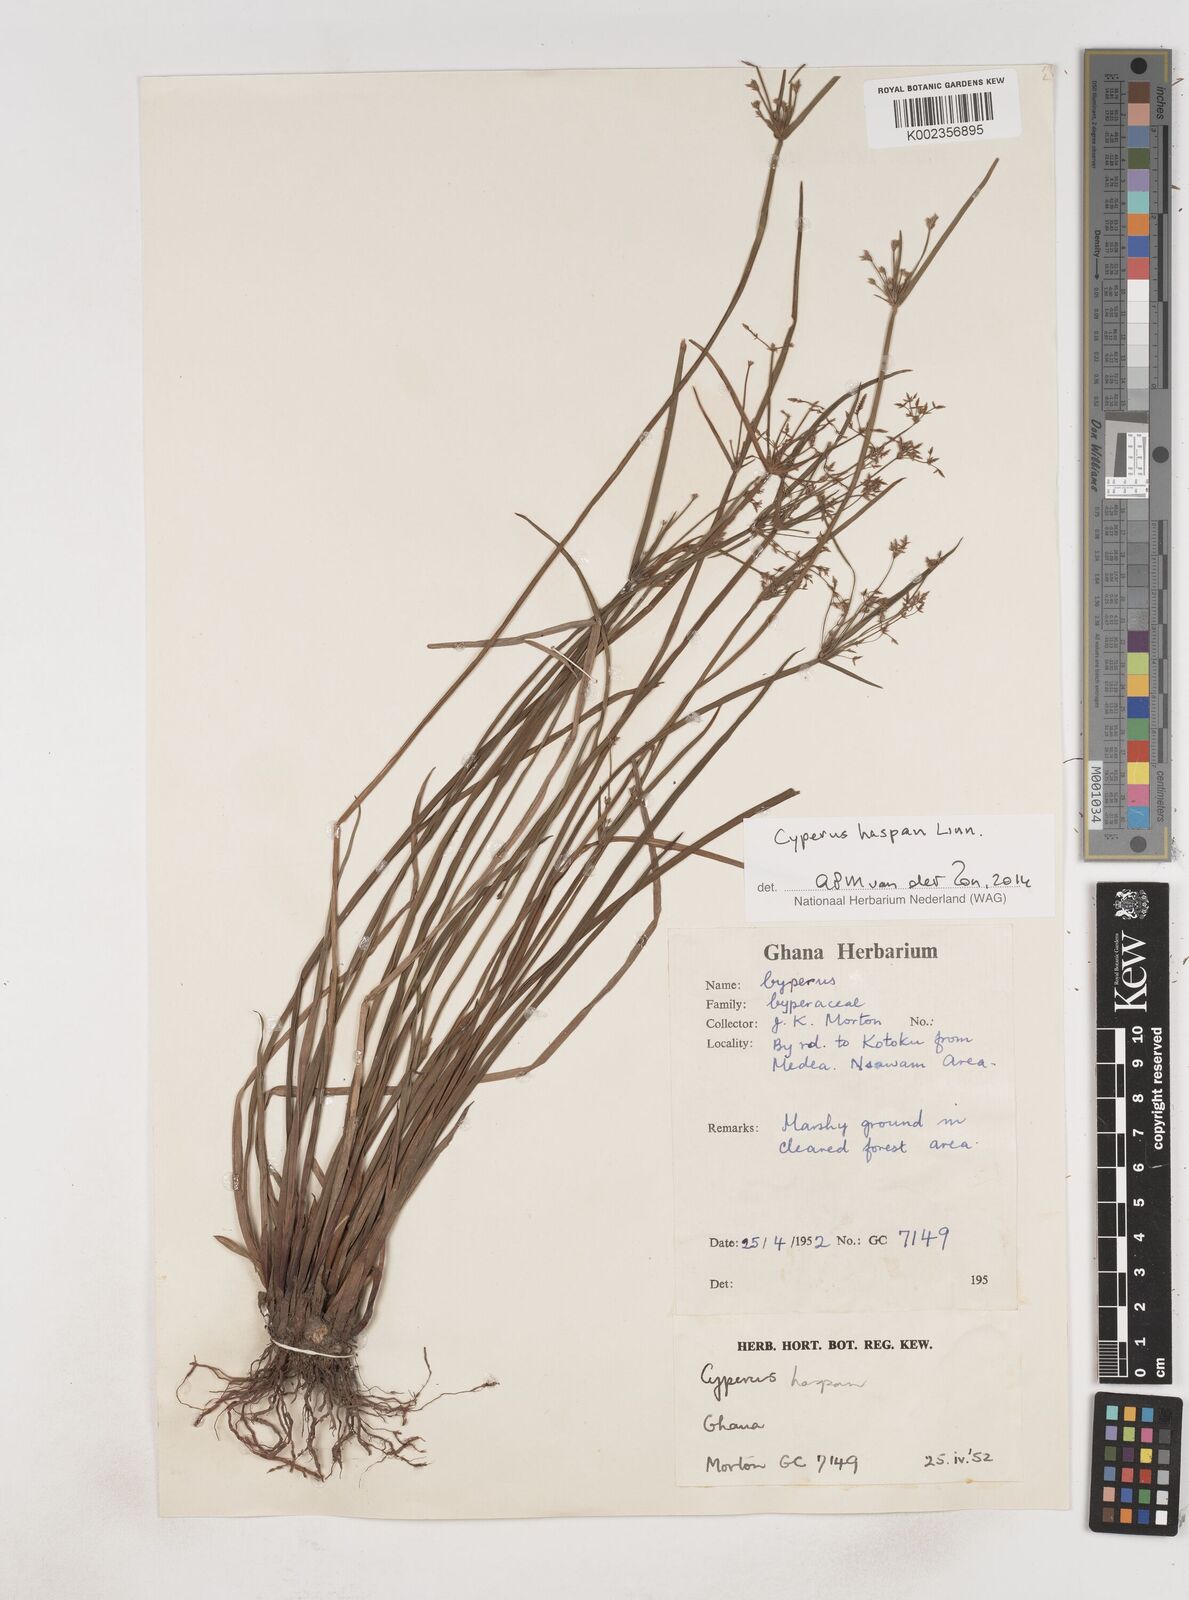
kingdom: Plantae
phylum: Tracheophyta
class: Liliopsida
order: Poales
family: Cyperaceae
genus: Cyperus
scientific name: Cyperus haspan
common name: Haspan flatsedge
